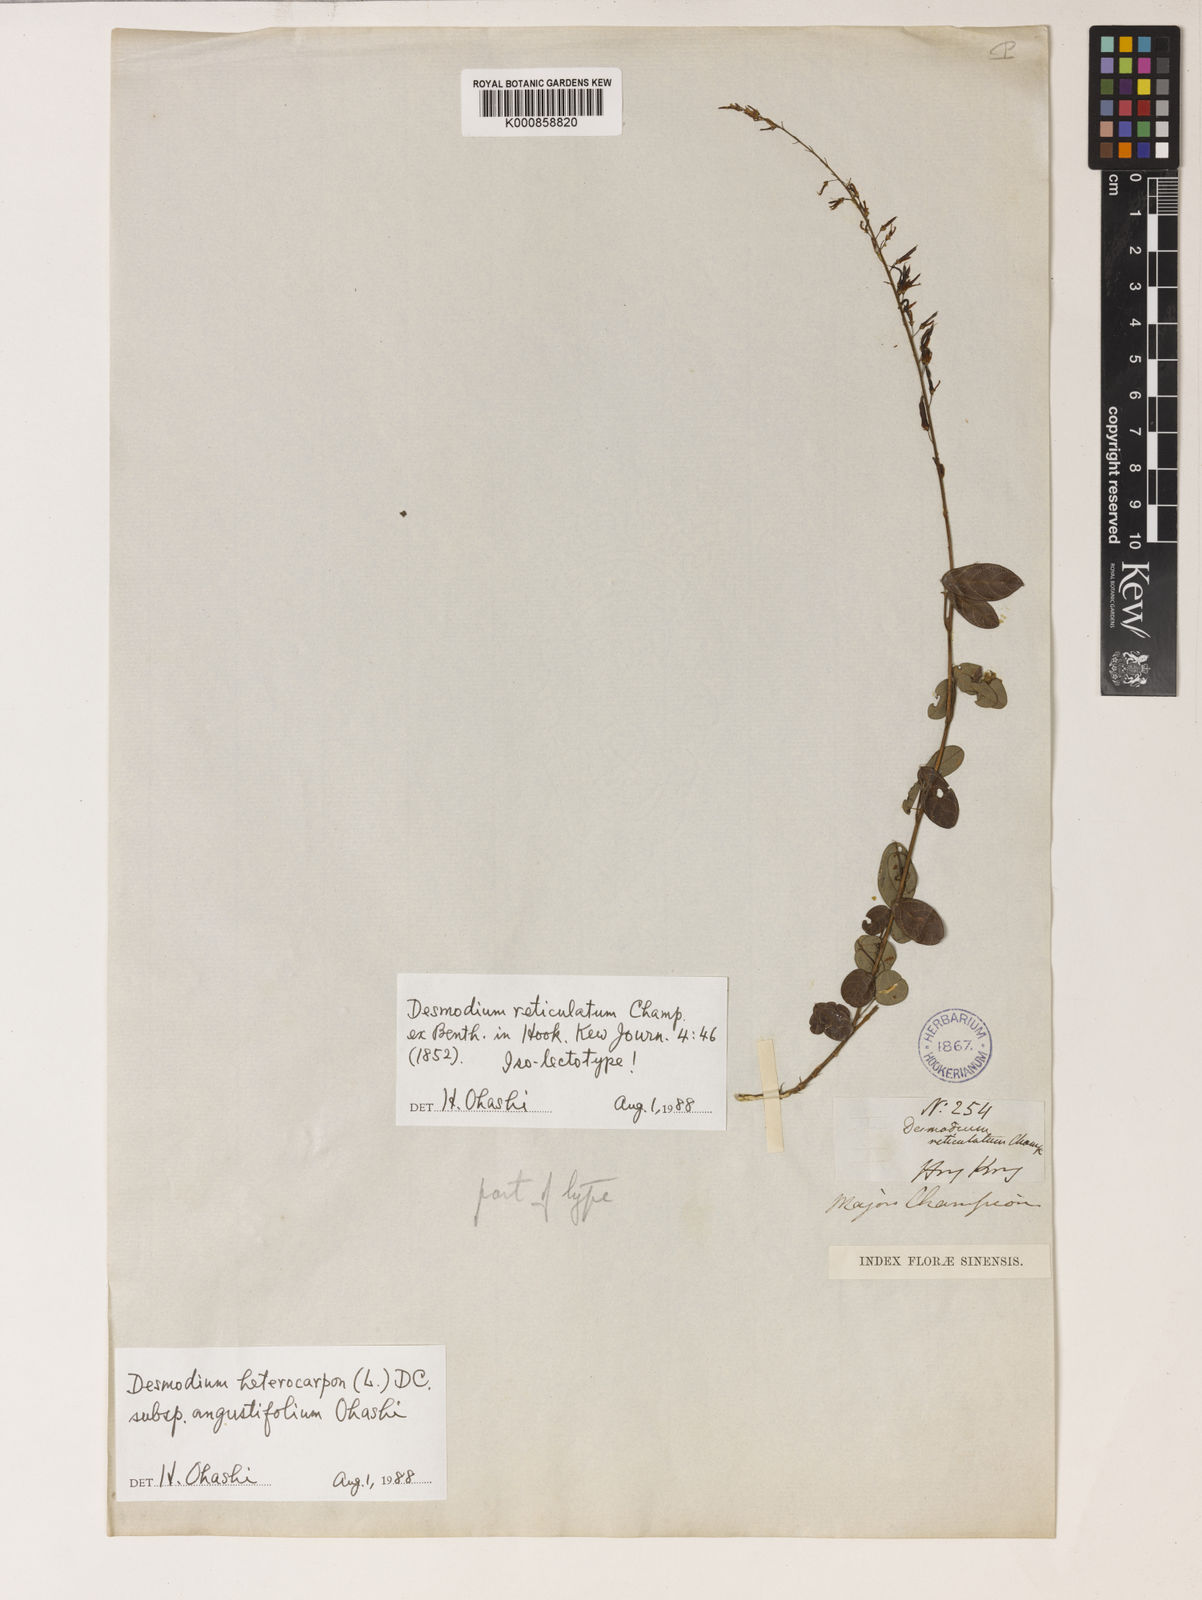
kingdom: Plantae
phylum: Tracheophyta
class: Magnoliopsida
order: Fabales
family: Fabaceae
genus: Grona
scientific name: Grona reticulata
